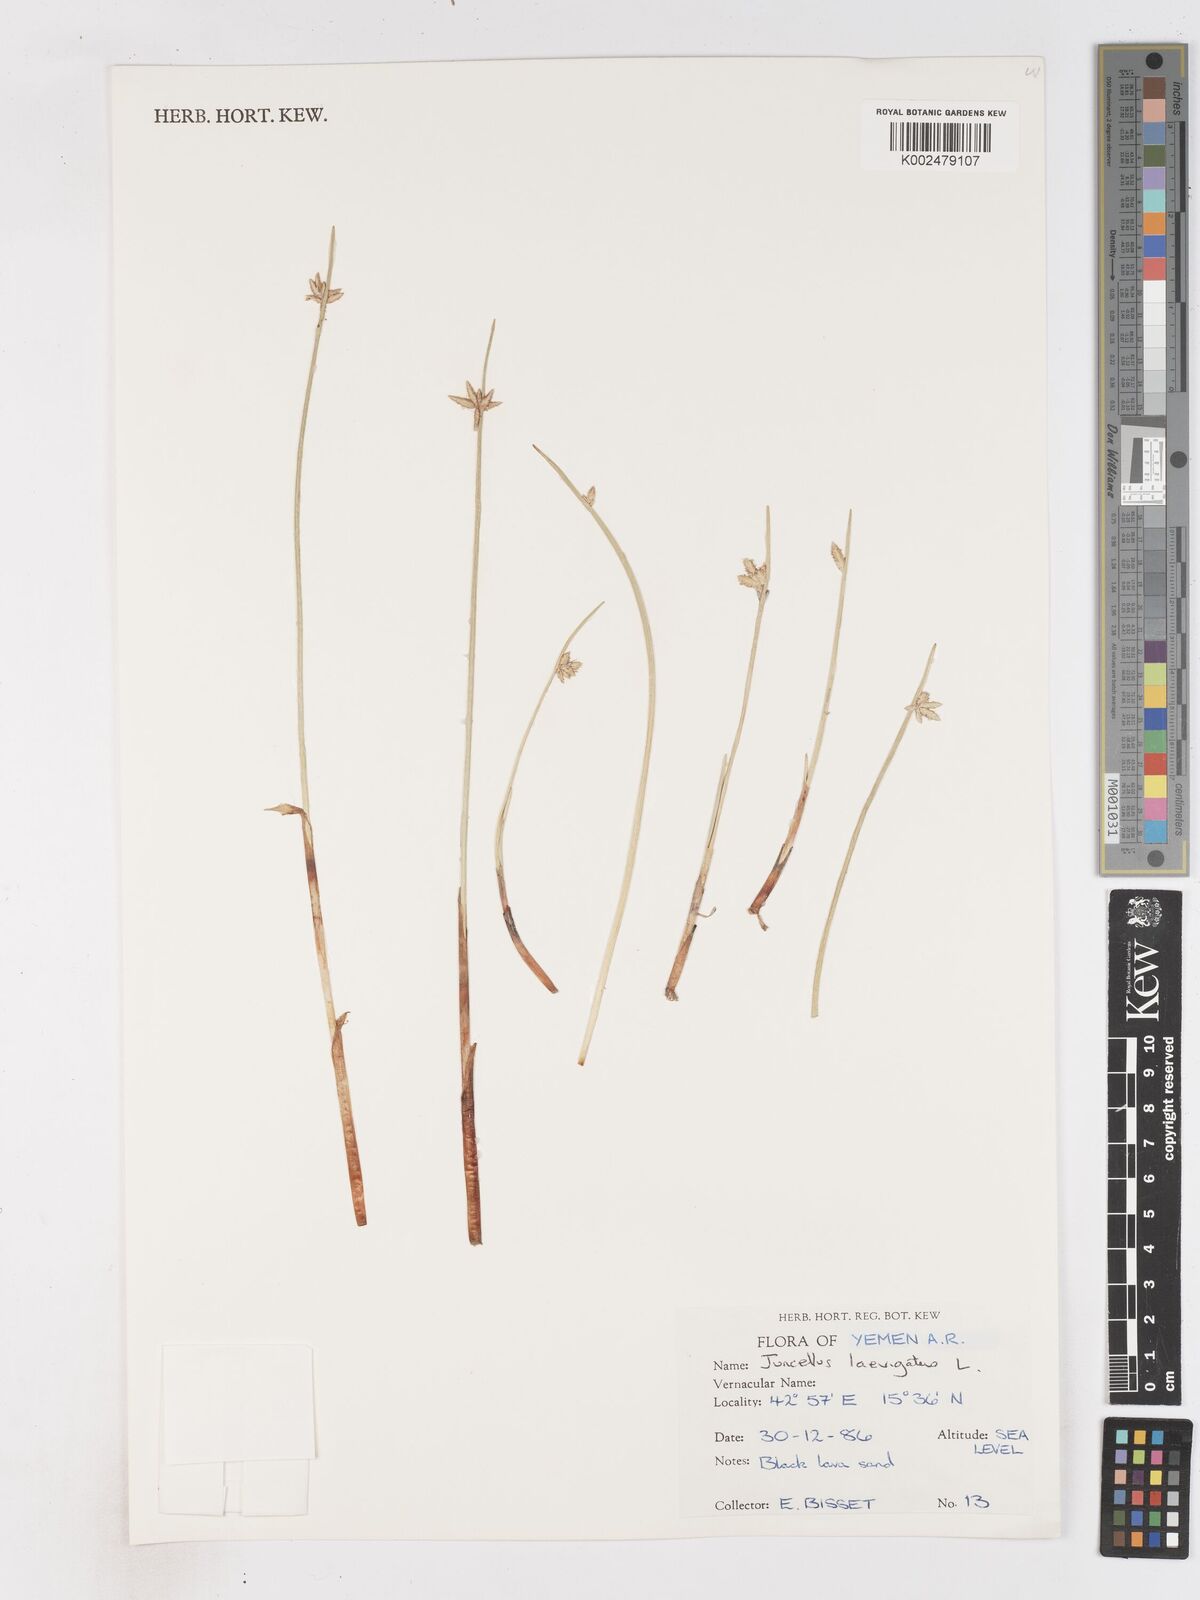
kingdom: Plantae
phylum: Tracheophyta
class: Liliopsida
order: Poales
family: Cyperaceae
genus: Cyperus
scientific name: Cyperus laevigatus
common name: Smooth flat sedge
